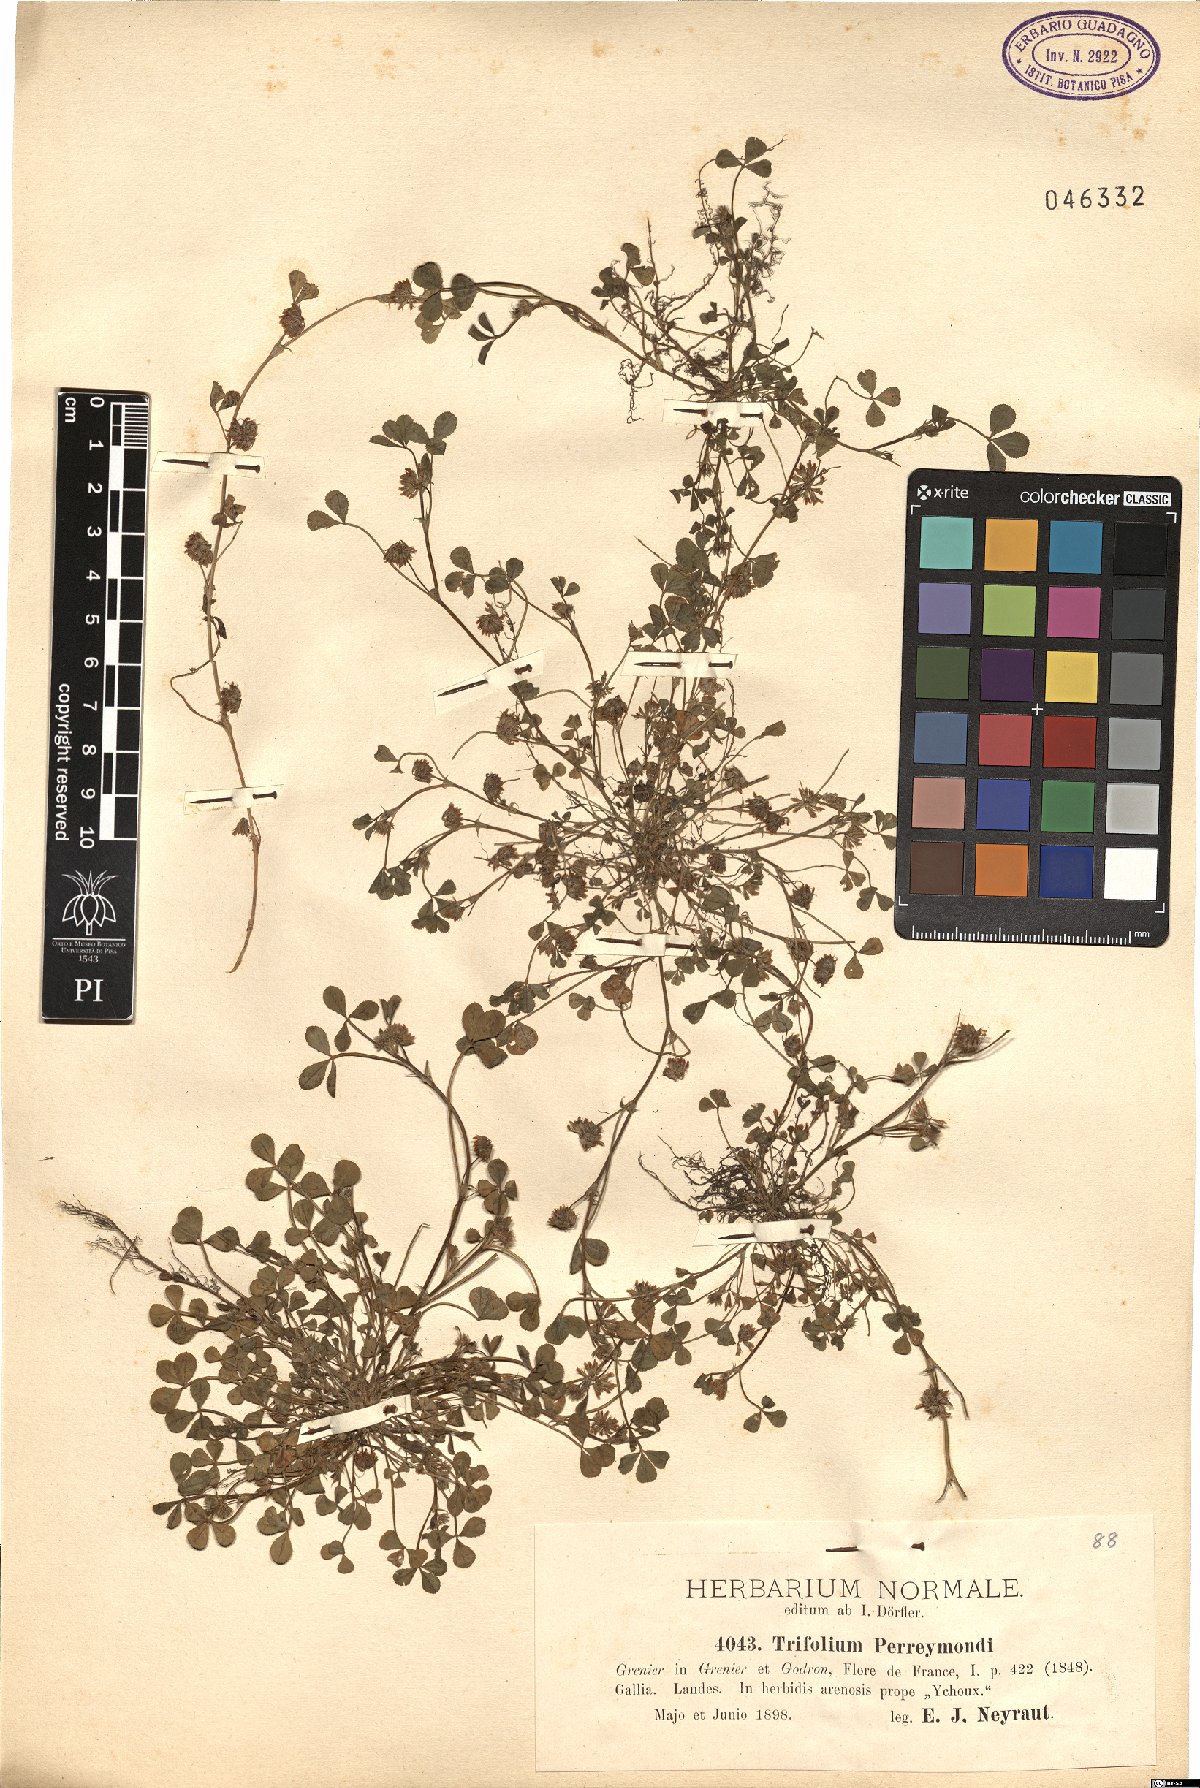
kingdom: Plantae
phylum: Tracheophyta
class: Magnoliopsida
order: Fabales
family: Fabaceae
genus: Trifolium
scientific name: Trifolium cernuum
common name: Nodding clover
